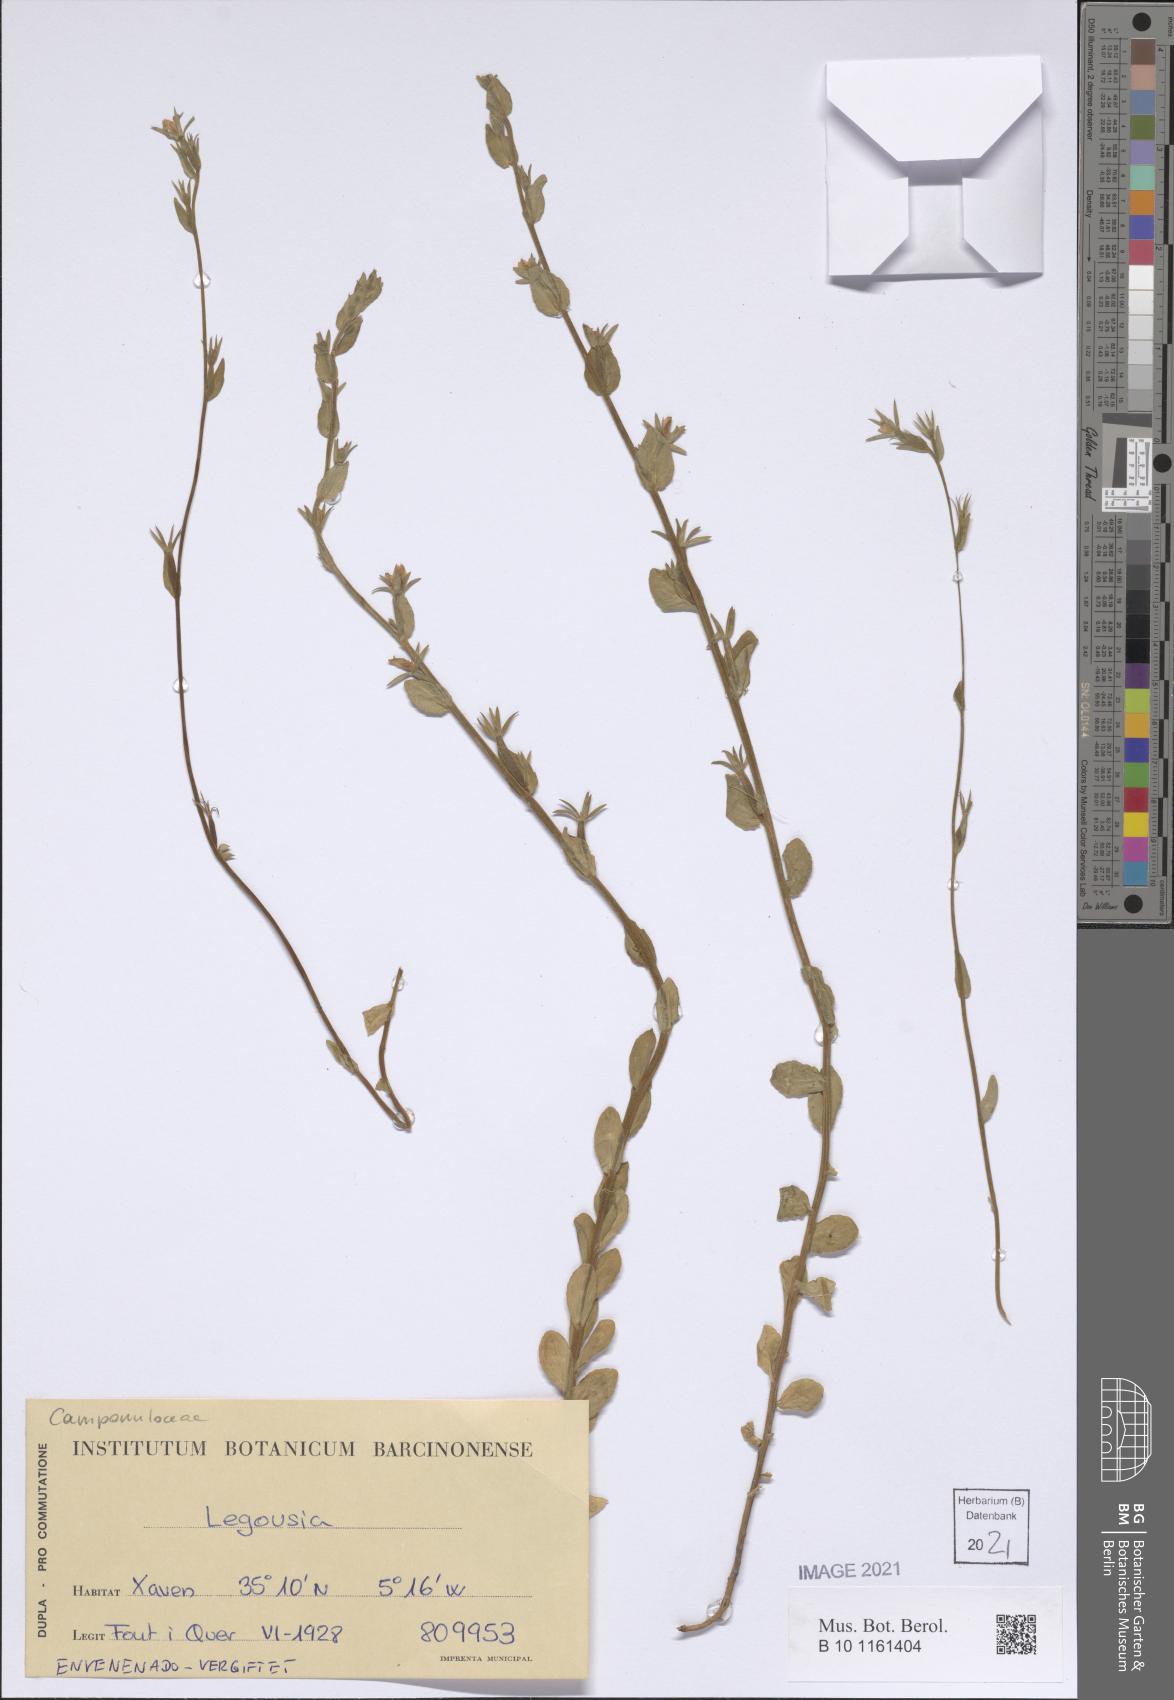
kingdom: Plantae
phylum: Tracheophyta
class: Magnoliopsida
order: Asterales
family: Campanulaceae
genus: Legousia
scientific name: Legousia
